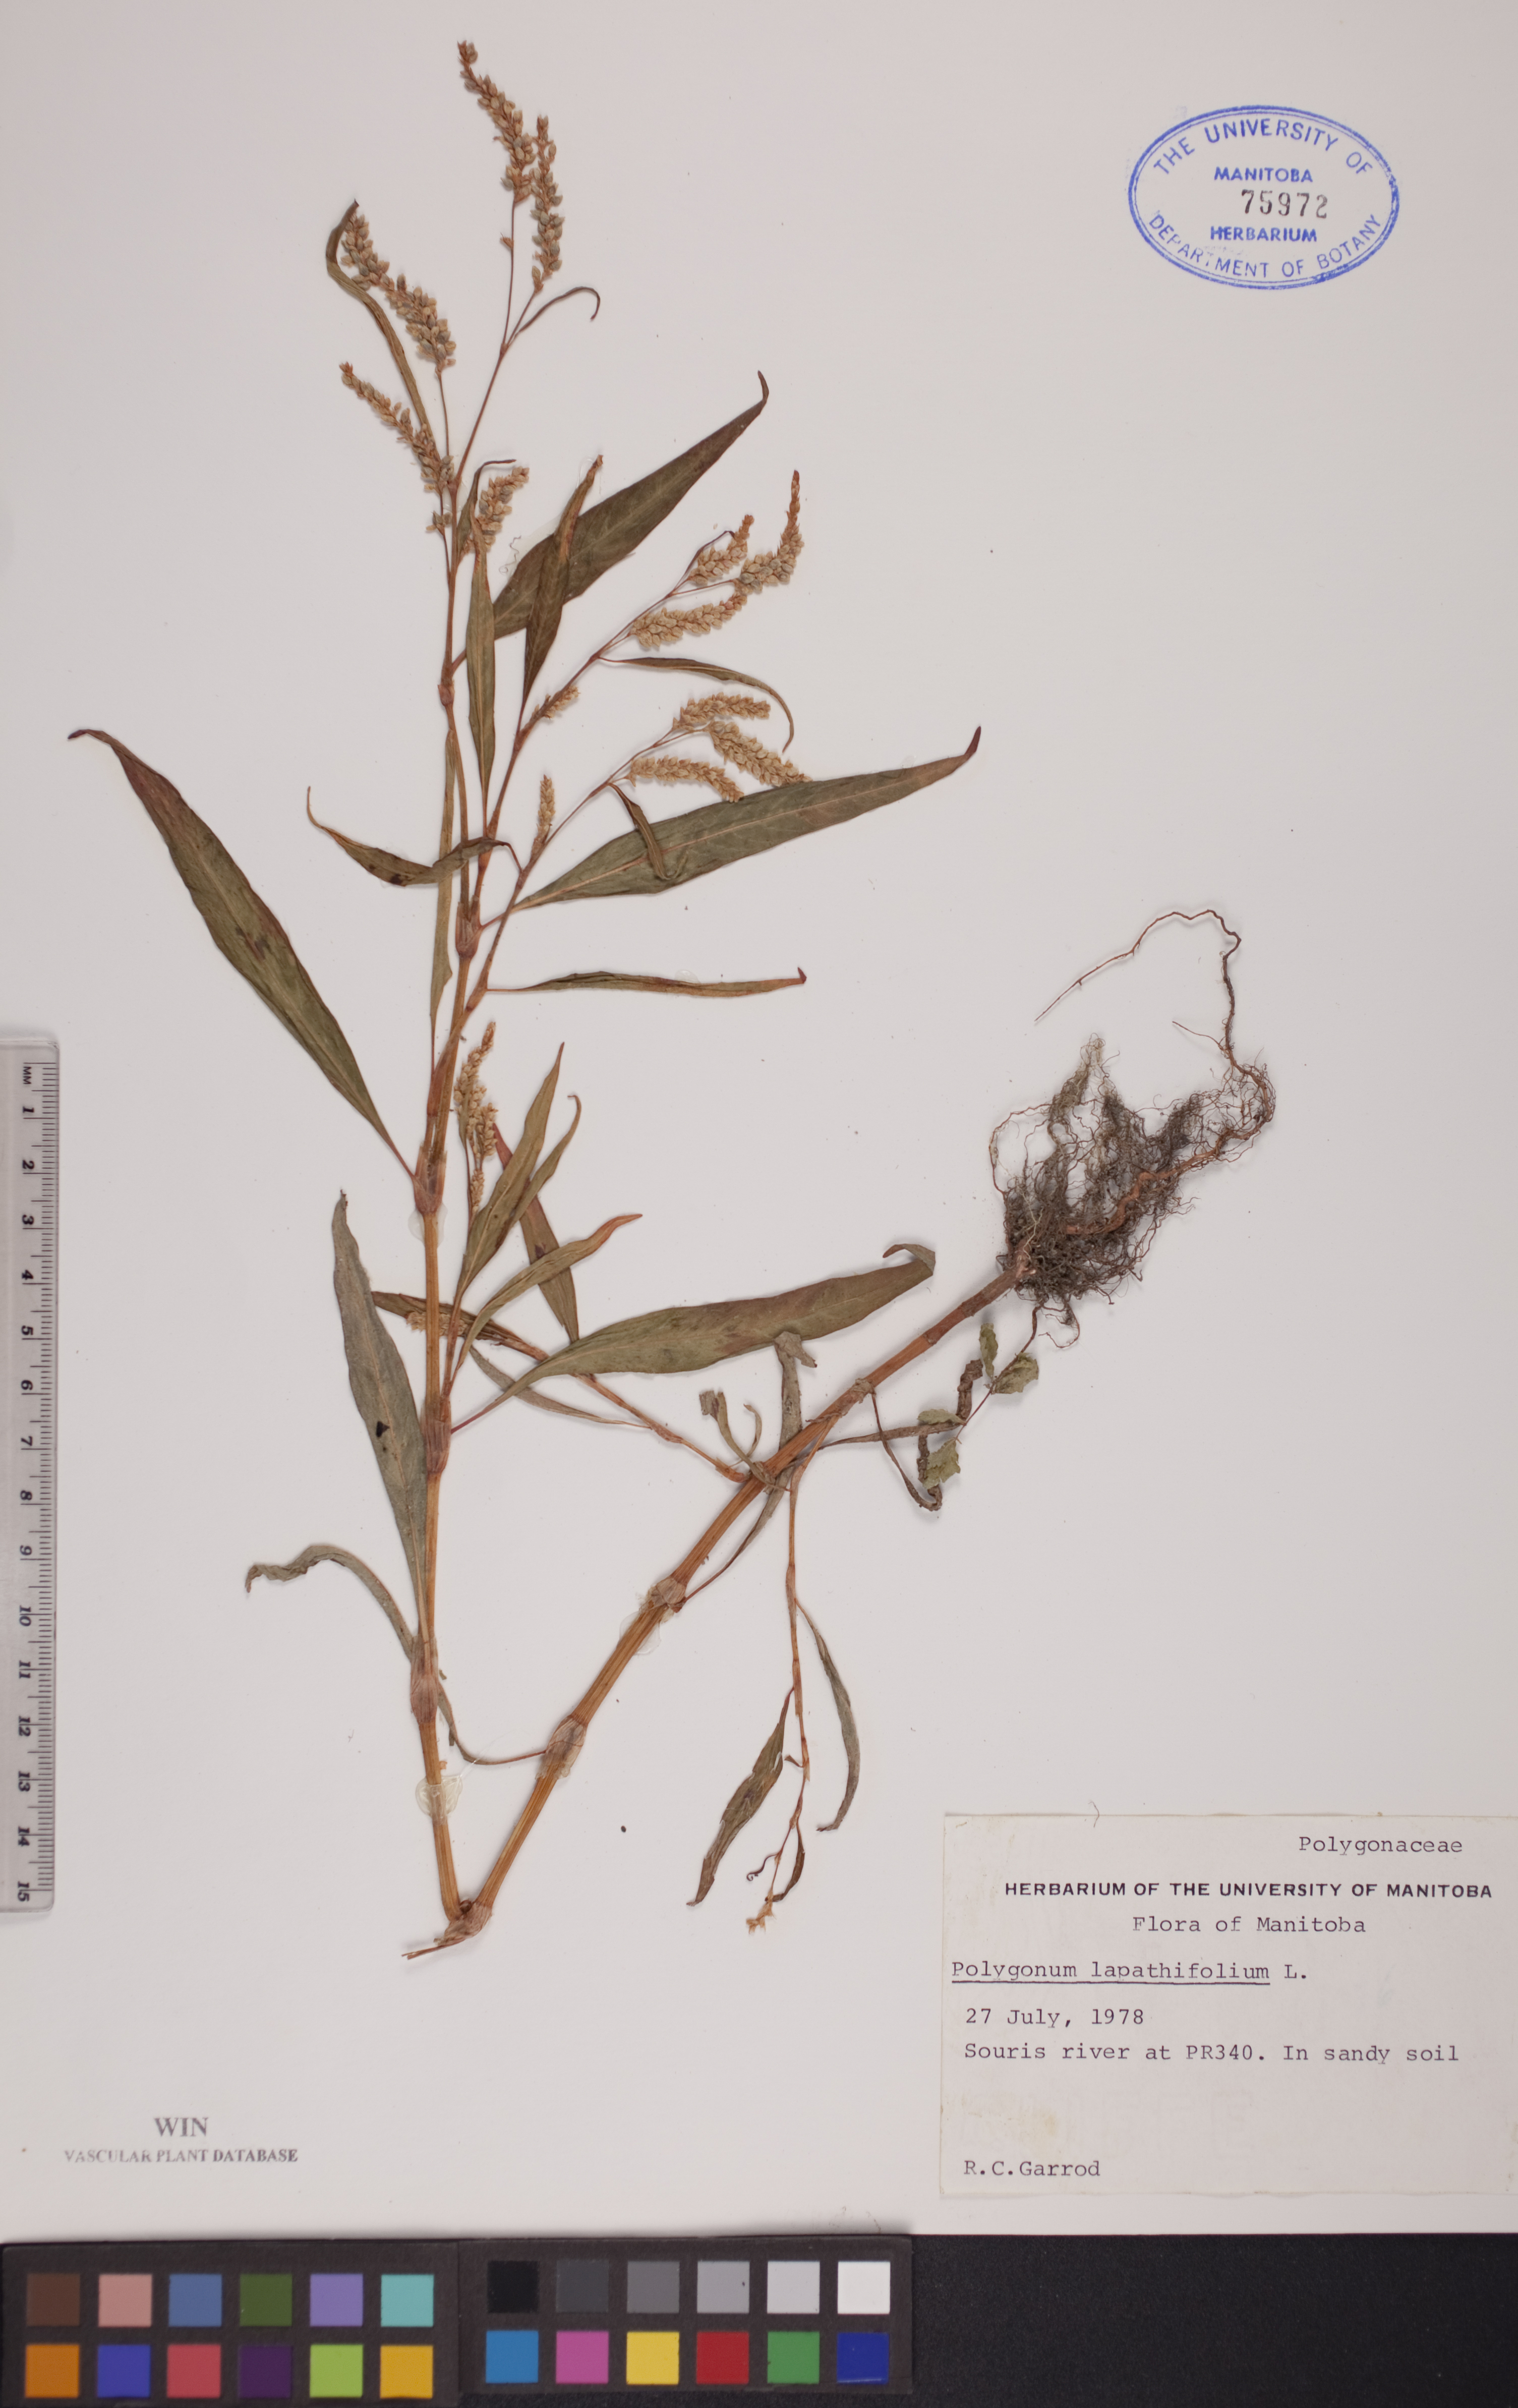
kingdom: Plantae
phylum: Tracheophyta
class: Magnoliopsida
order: Caryophyllales
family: Polygonaceae
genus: Persicaria
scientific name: Persicaria lapathifolia
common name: Curlytop knotweed
